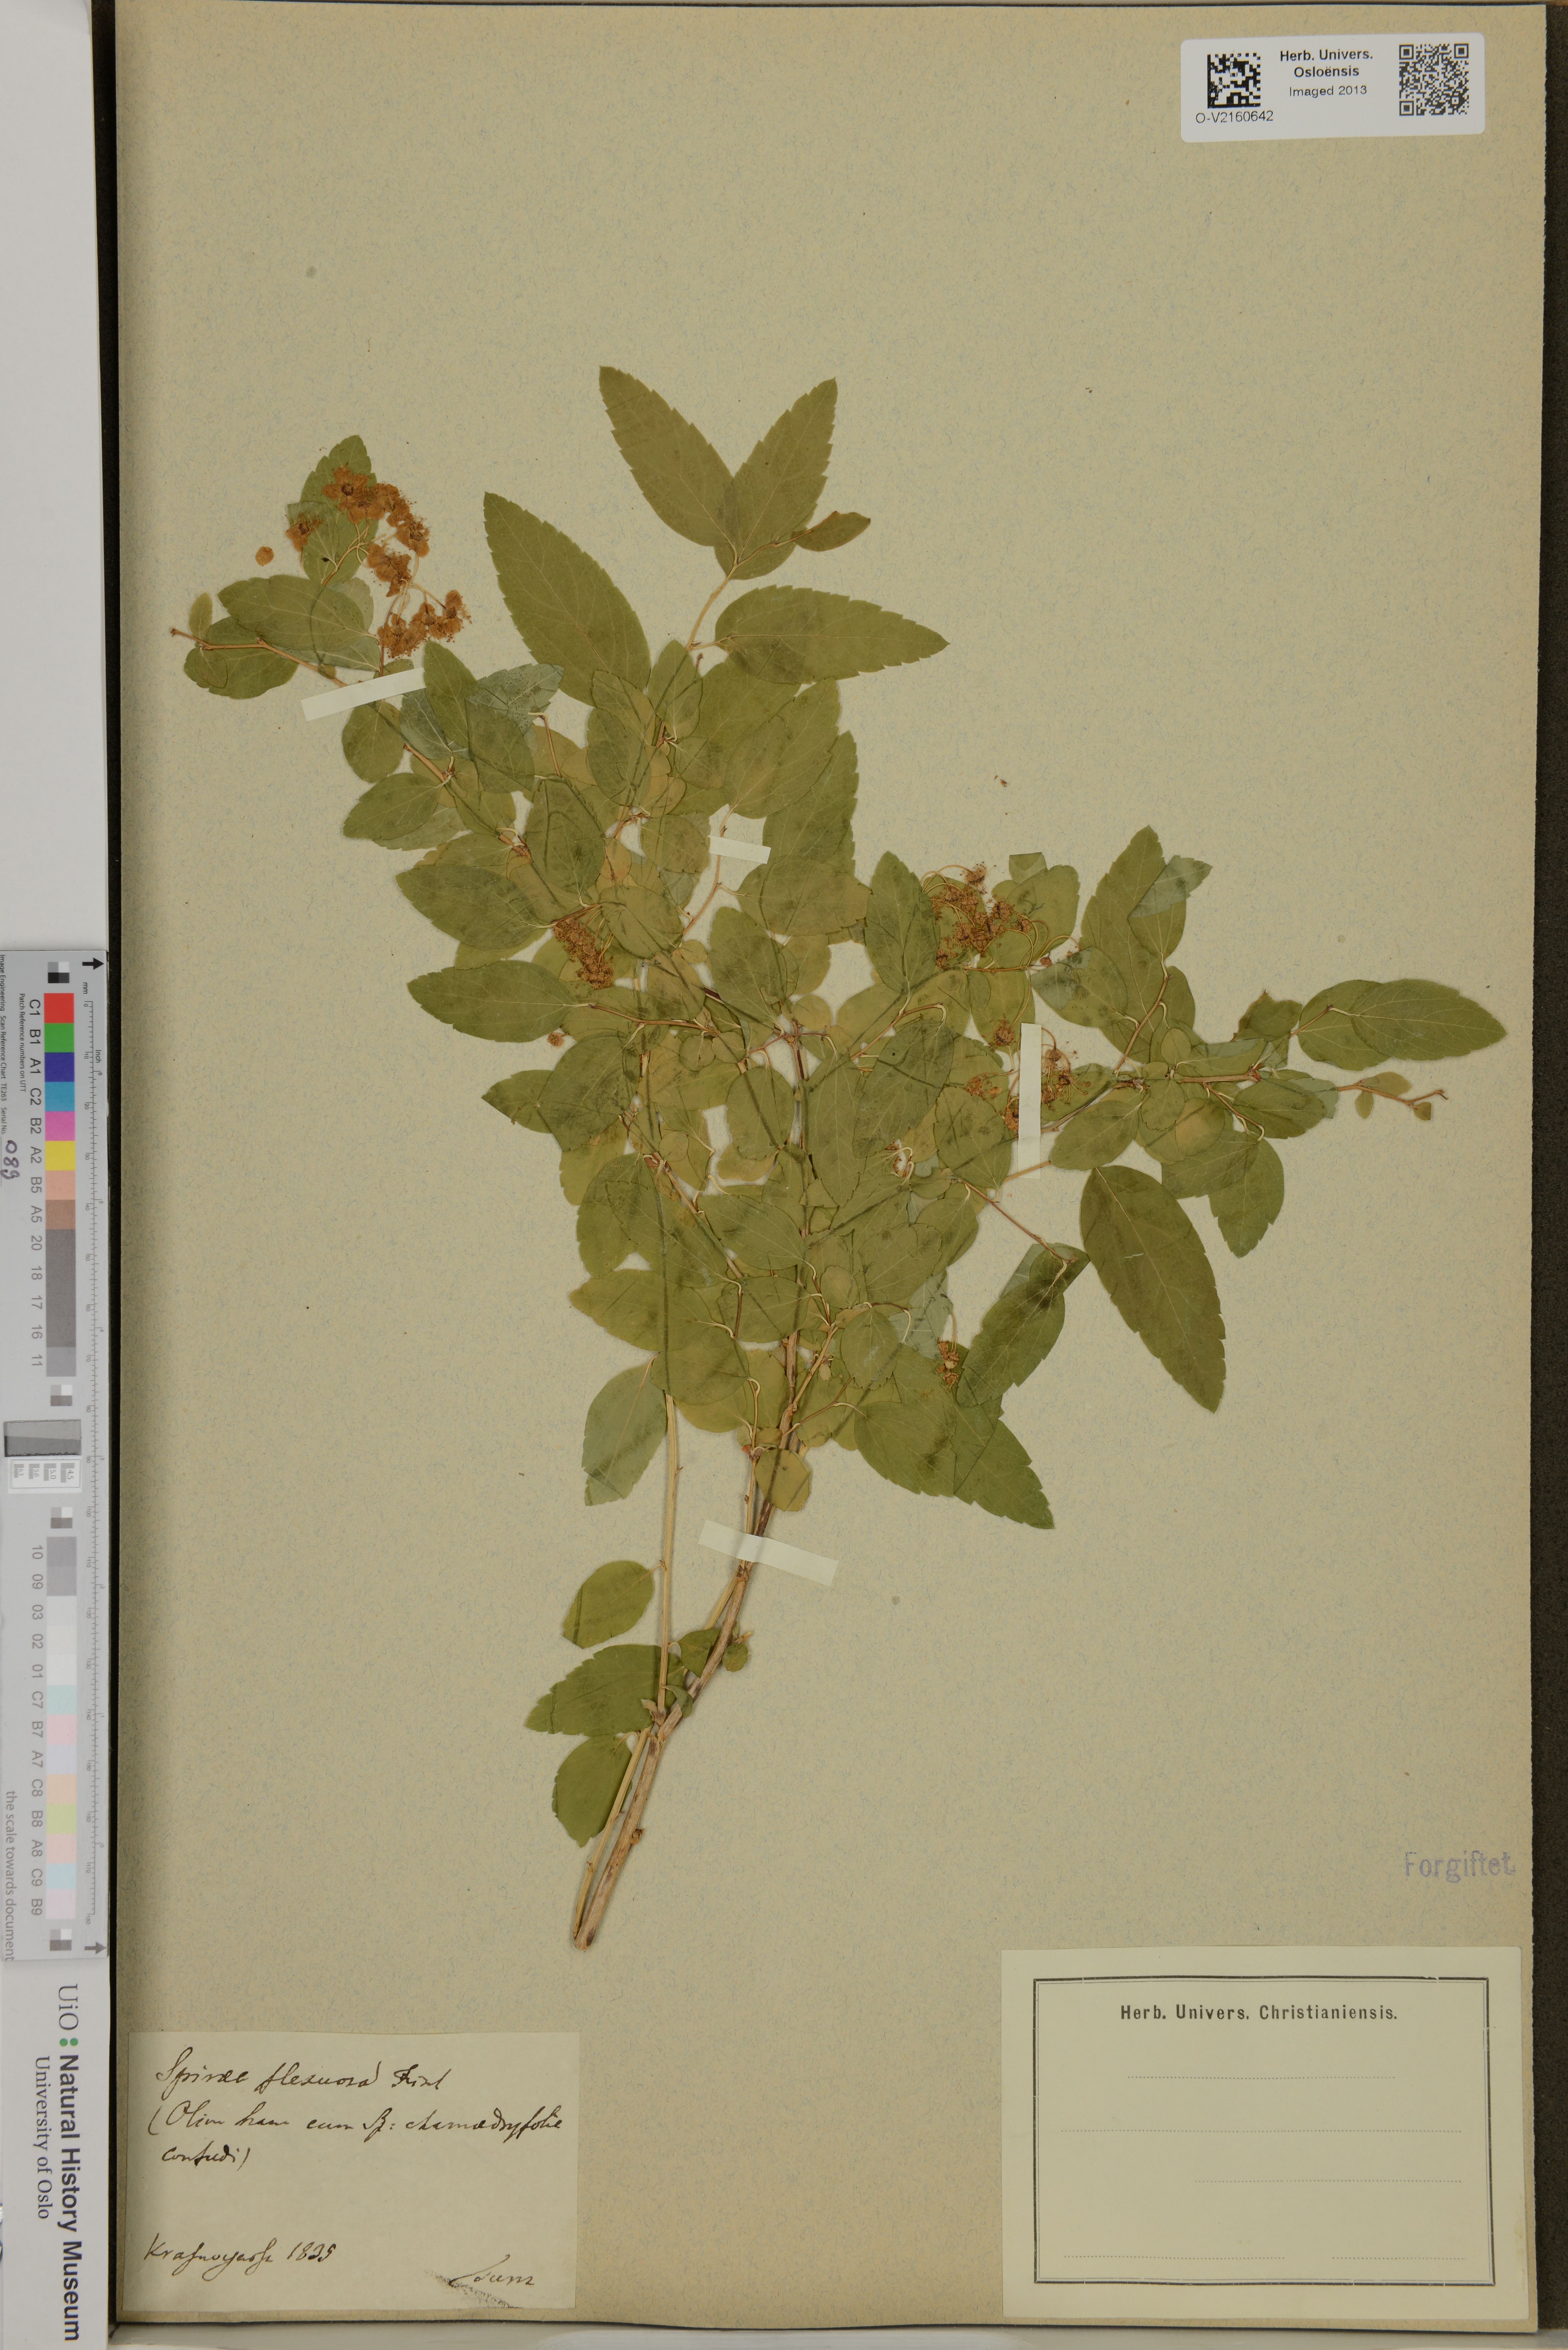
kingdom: Plantae
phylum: Tracheophyta
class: Magnoliopsida
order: Rosales
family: Rosaceae
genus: Spiraea
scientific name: Spiraea flexuosa
